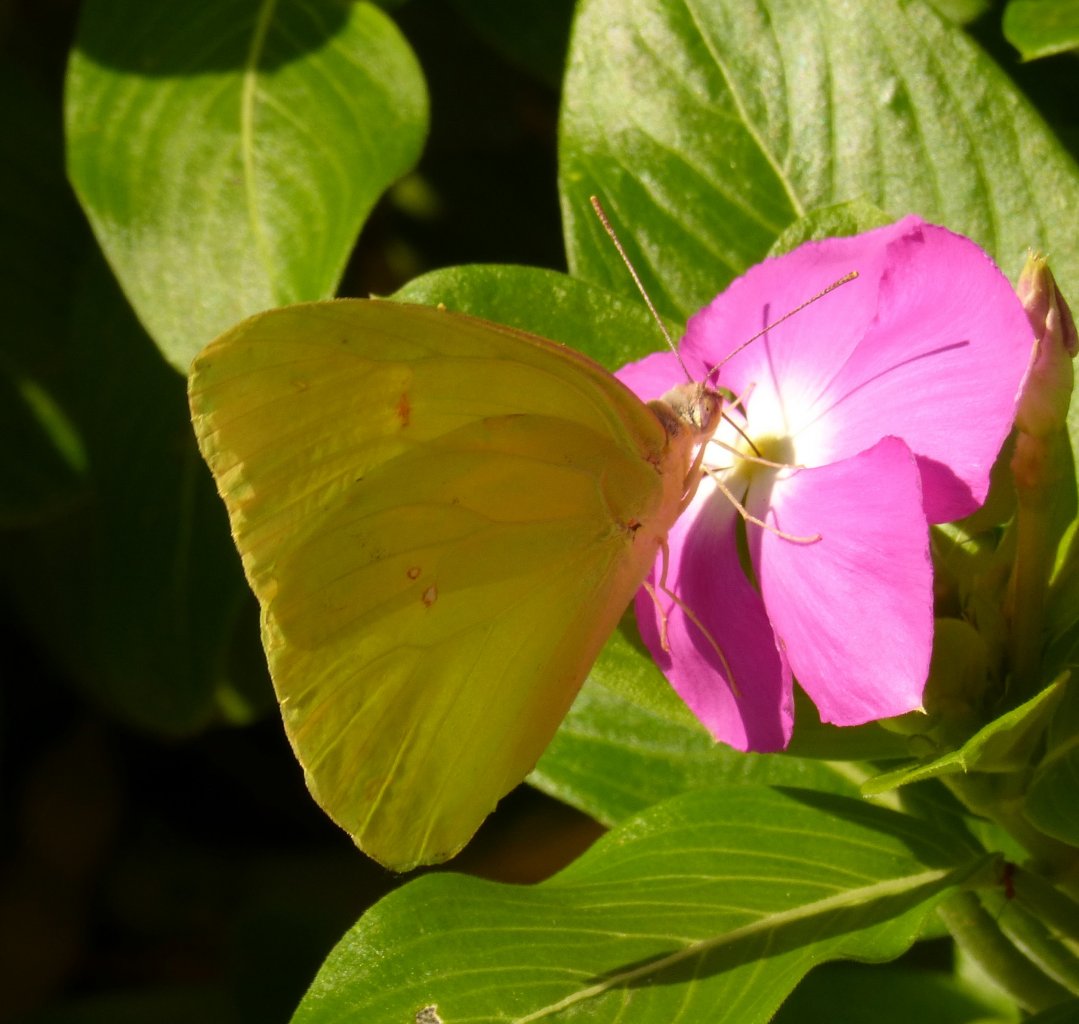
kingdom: Animalia
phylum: Arthropoda
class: Insecta
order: Lepidoptera
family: Pieridae
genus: Phoebis
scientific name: Phoebis sennae
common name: Cloudless Sulphur
